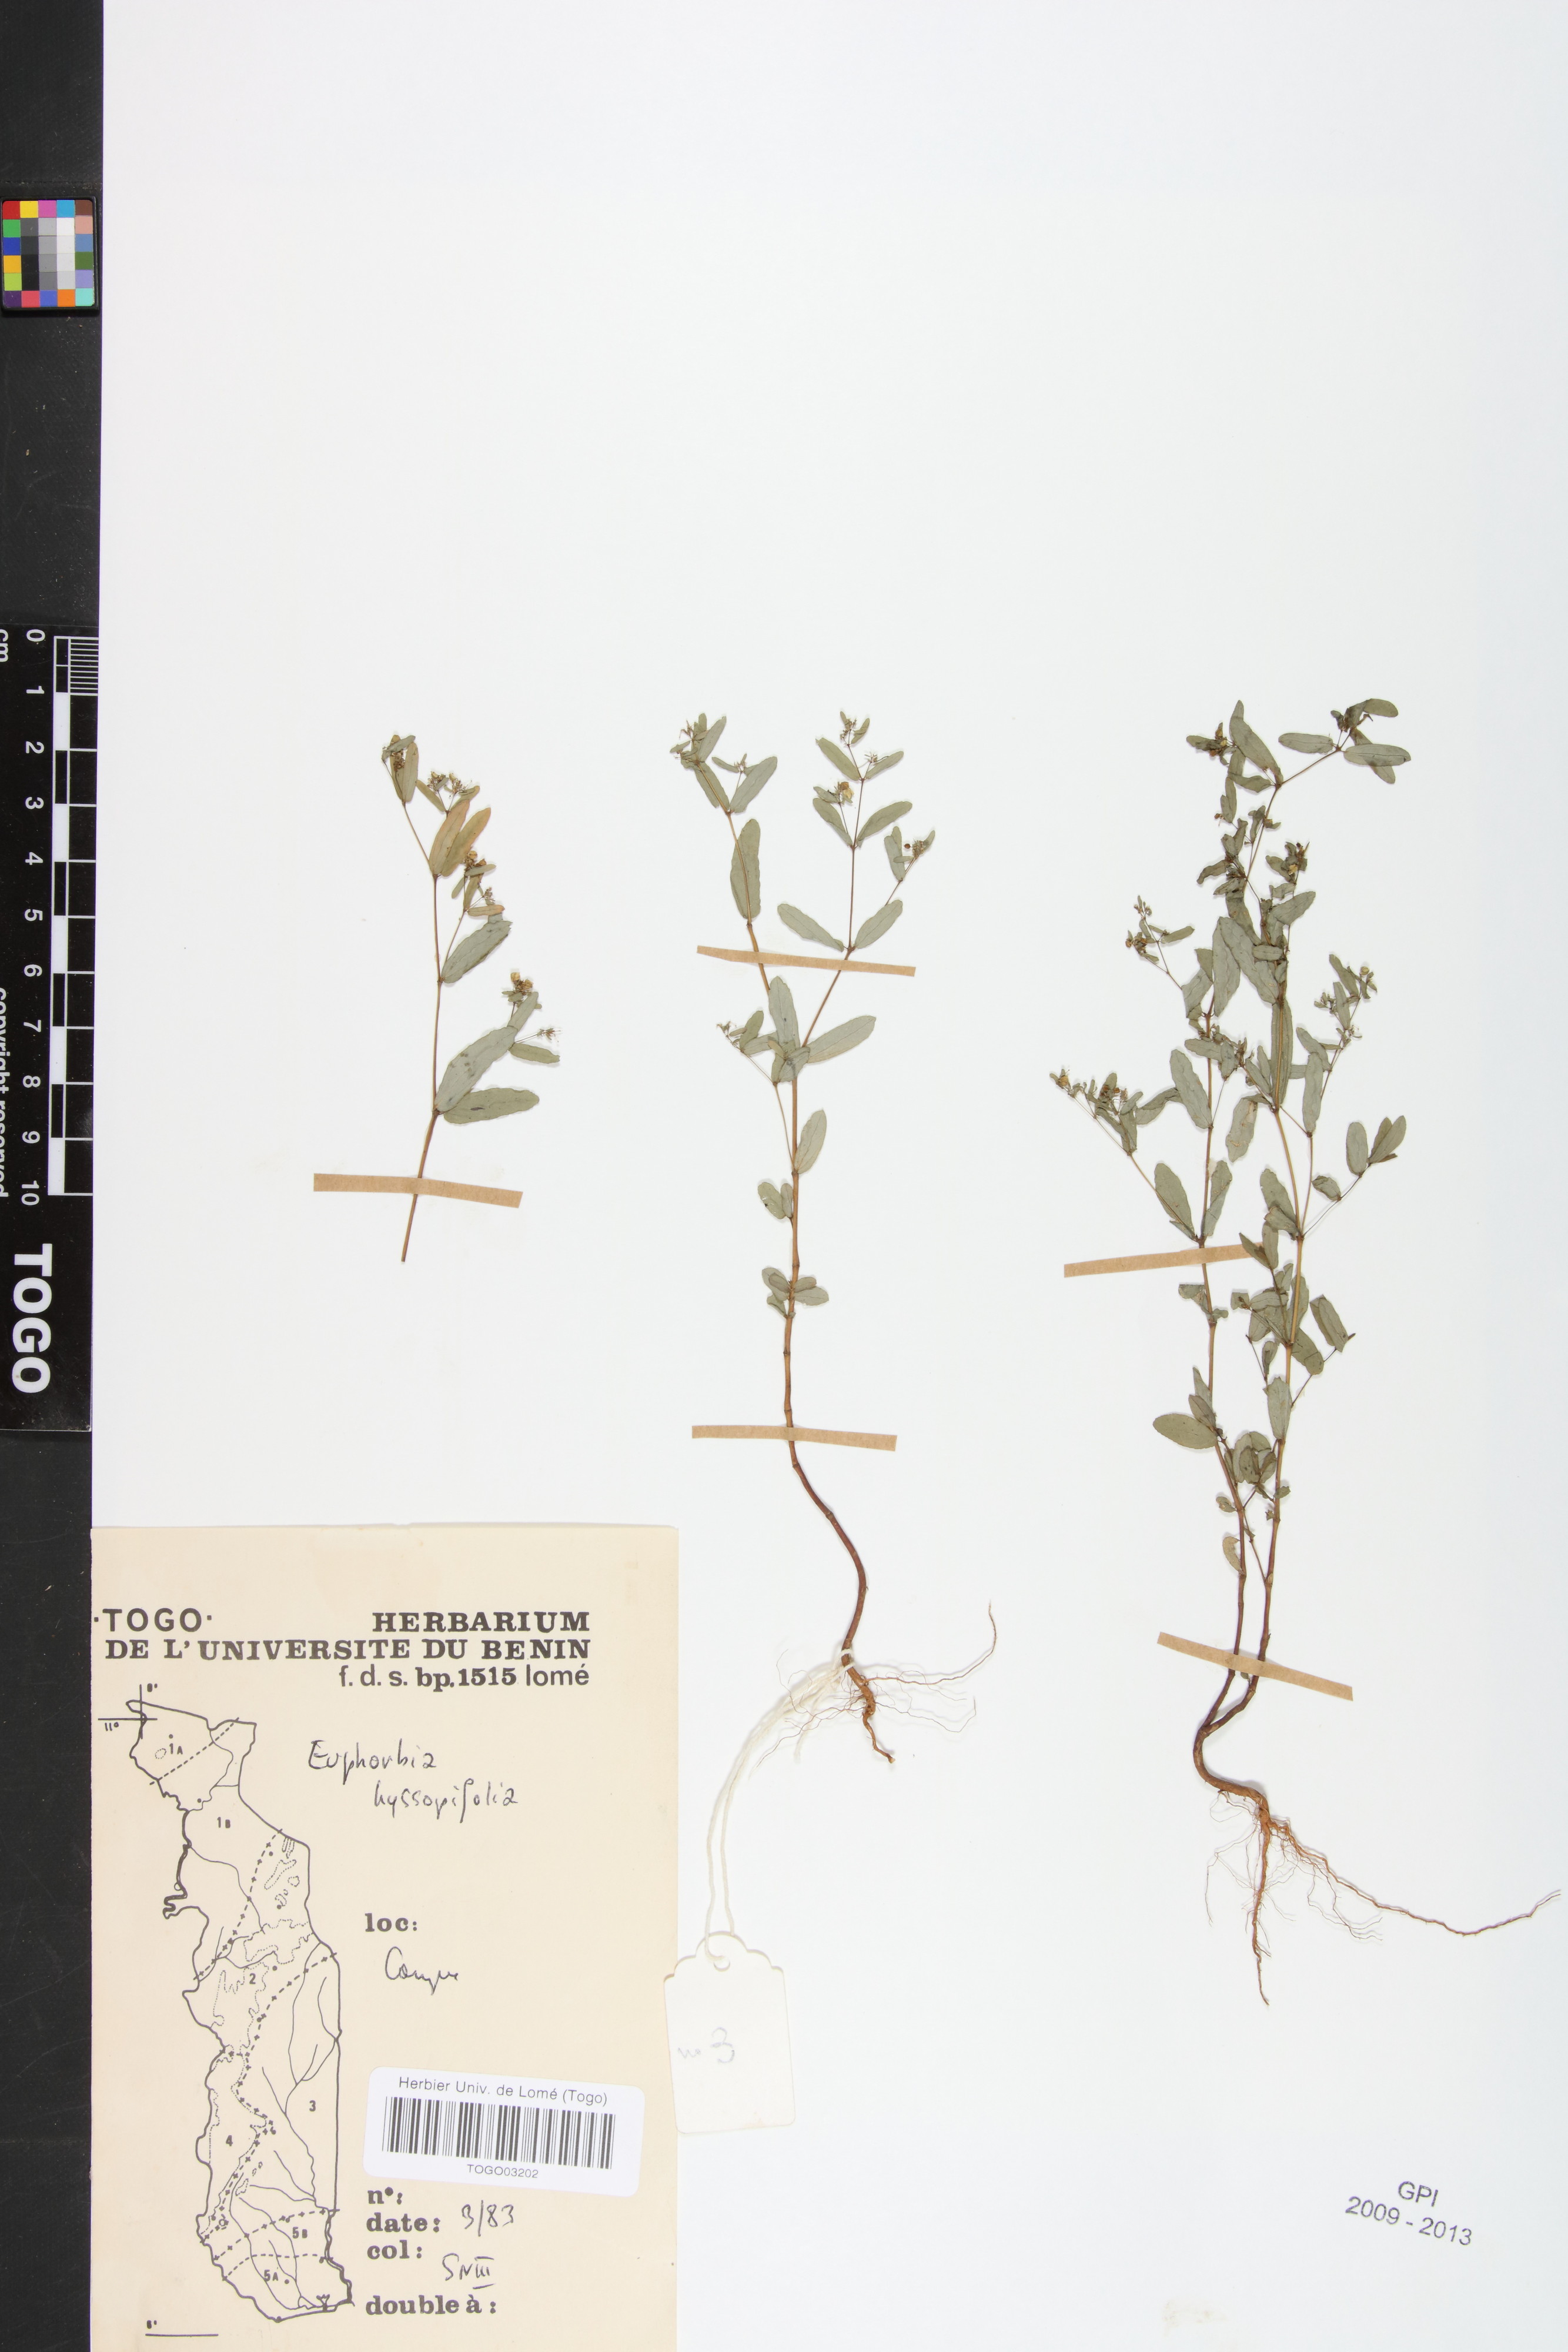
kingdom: Plantae
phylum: Tracheophyta
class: Magnoliopsida
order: Malpighiales
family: Euphorbiaceae
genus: Euphorbia
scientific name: Euphorbia hyssopifolia
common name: Hyssopleaf sandmat
